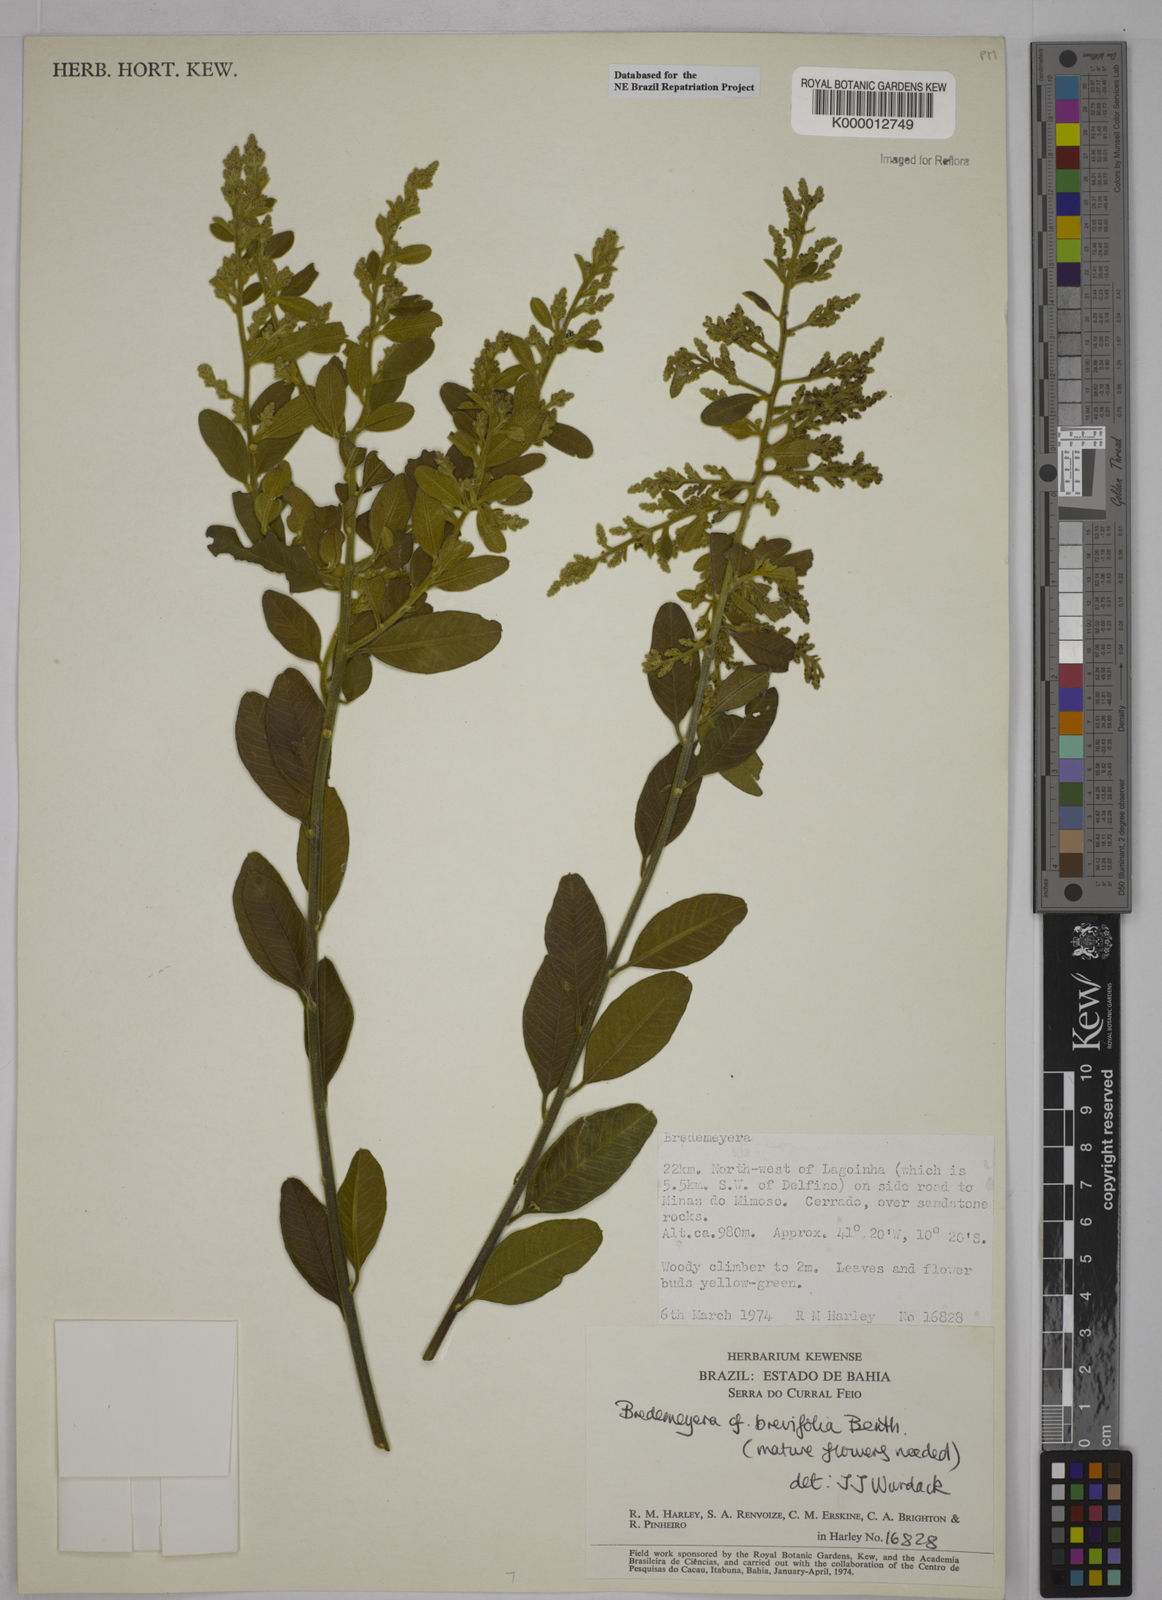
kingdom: Plantae
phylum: Tracheophyta
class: Magnoliopsida
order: Fabales
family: Polygalaceae
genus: Bredemeyera
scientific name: Bredemeyera brevifolia
